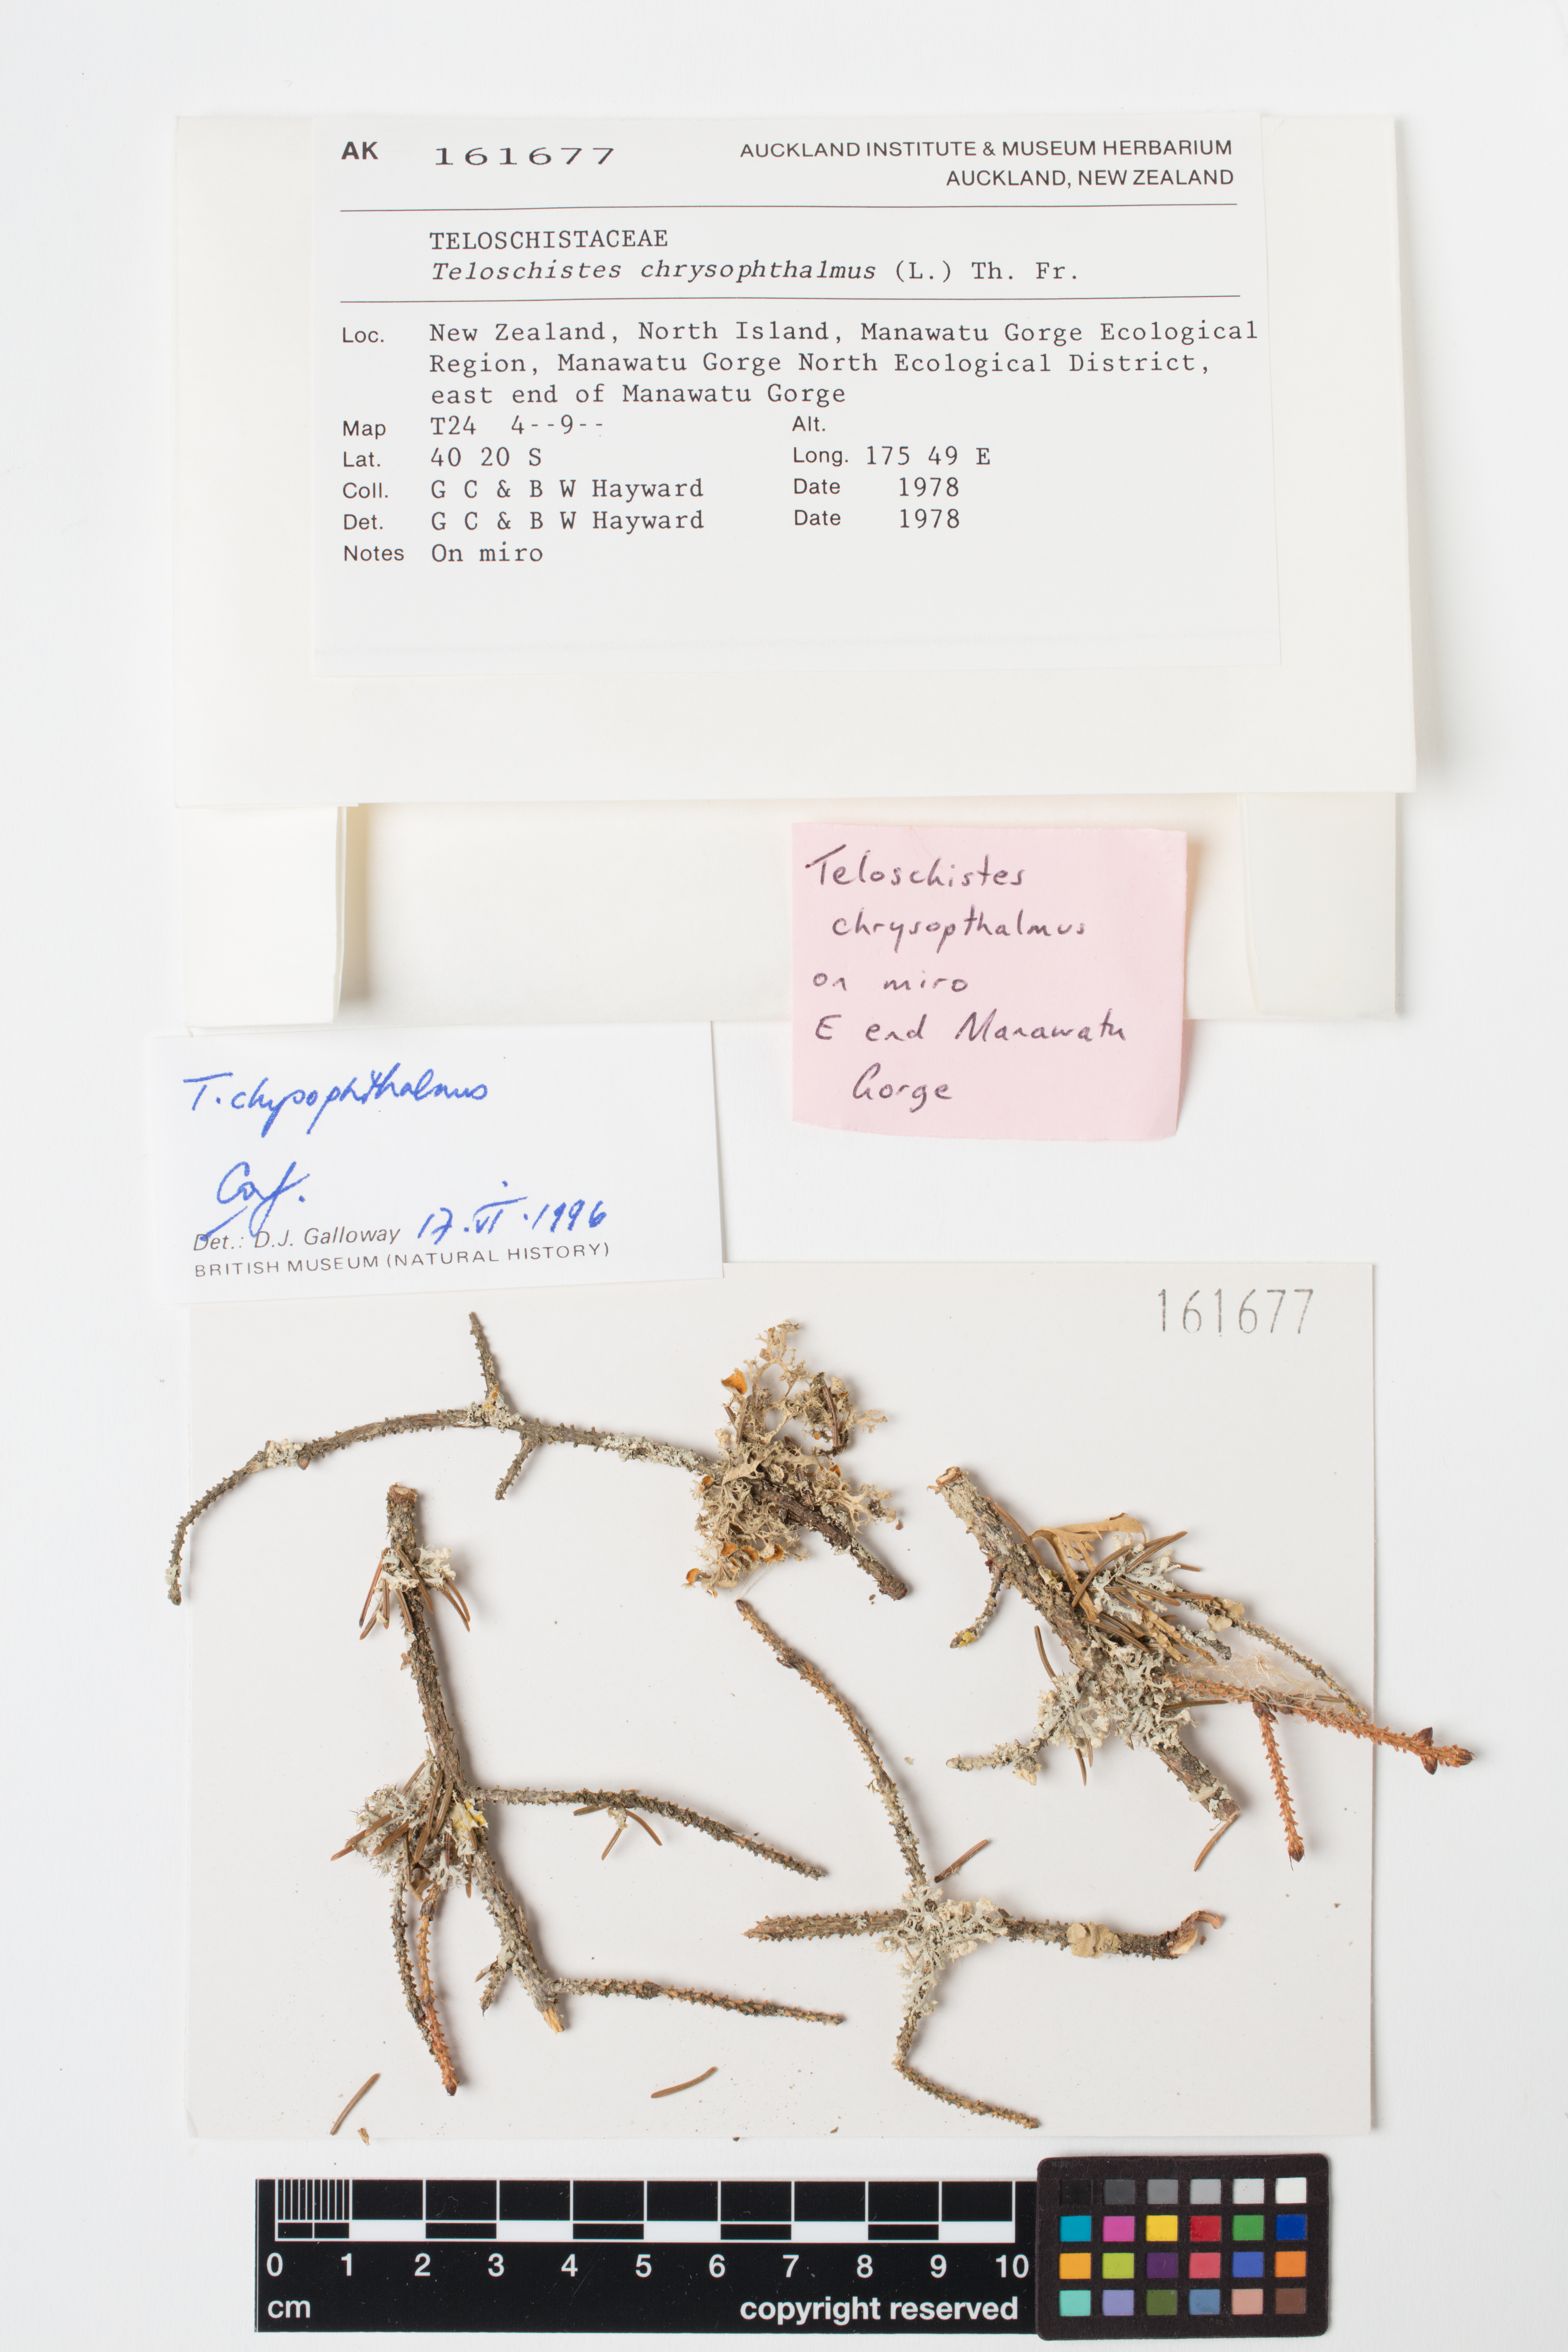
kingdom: Fungi
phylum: Ascomycota
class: Lecanoromycetes
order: Teloschistales
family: Teloschistaceae
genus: Niorma
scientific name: Niorma chrysophthalma
